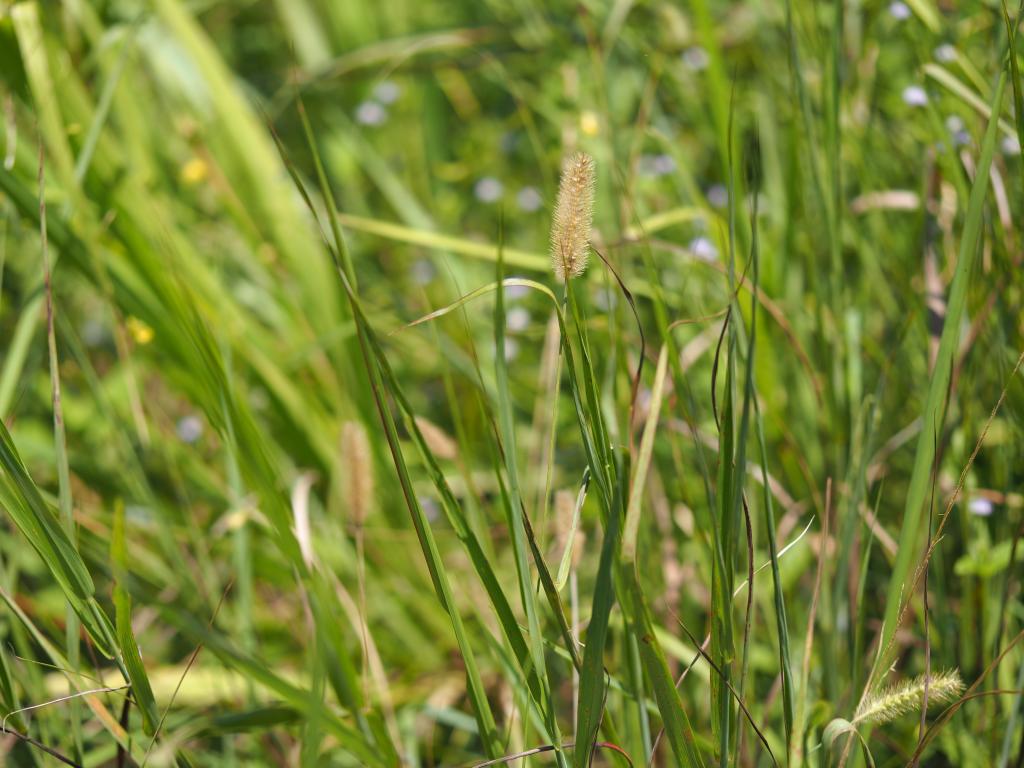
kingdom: Plantae
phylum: Tracheophyta
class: Liliopsida
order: Poales
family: Poaceae
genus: Setaria
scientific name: Setaria parviflora
